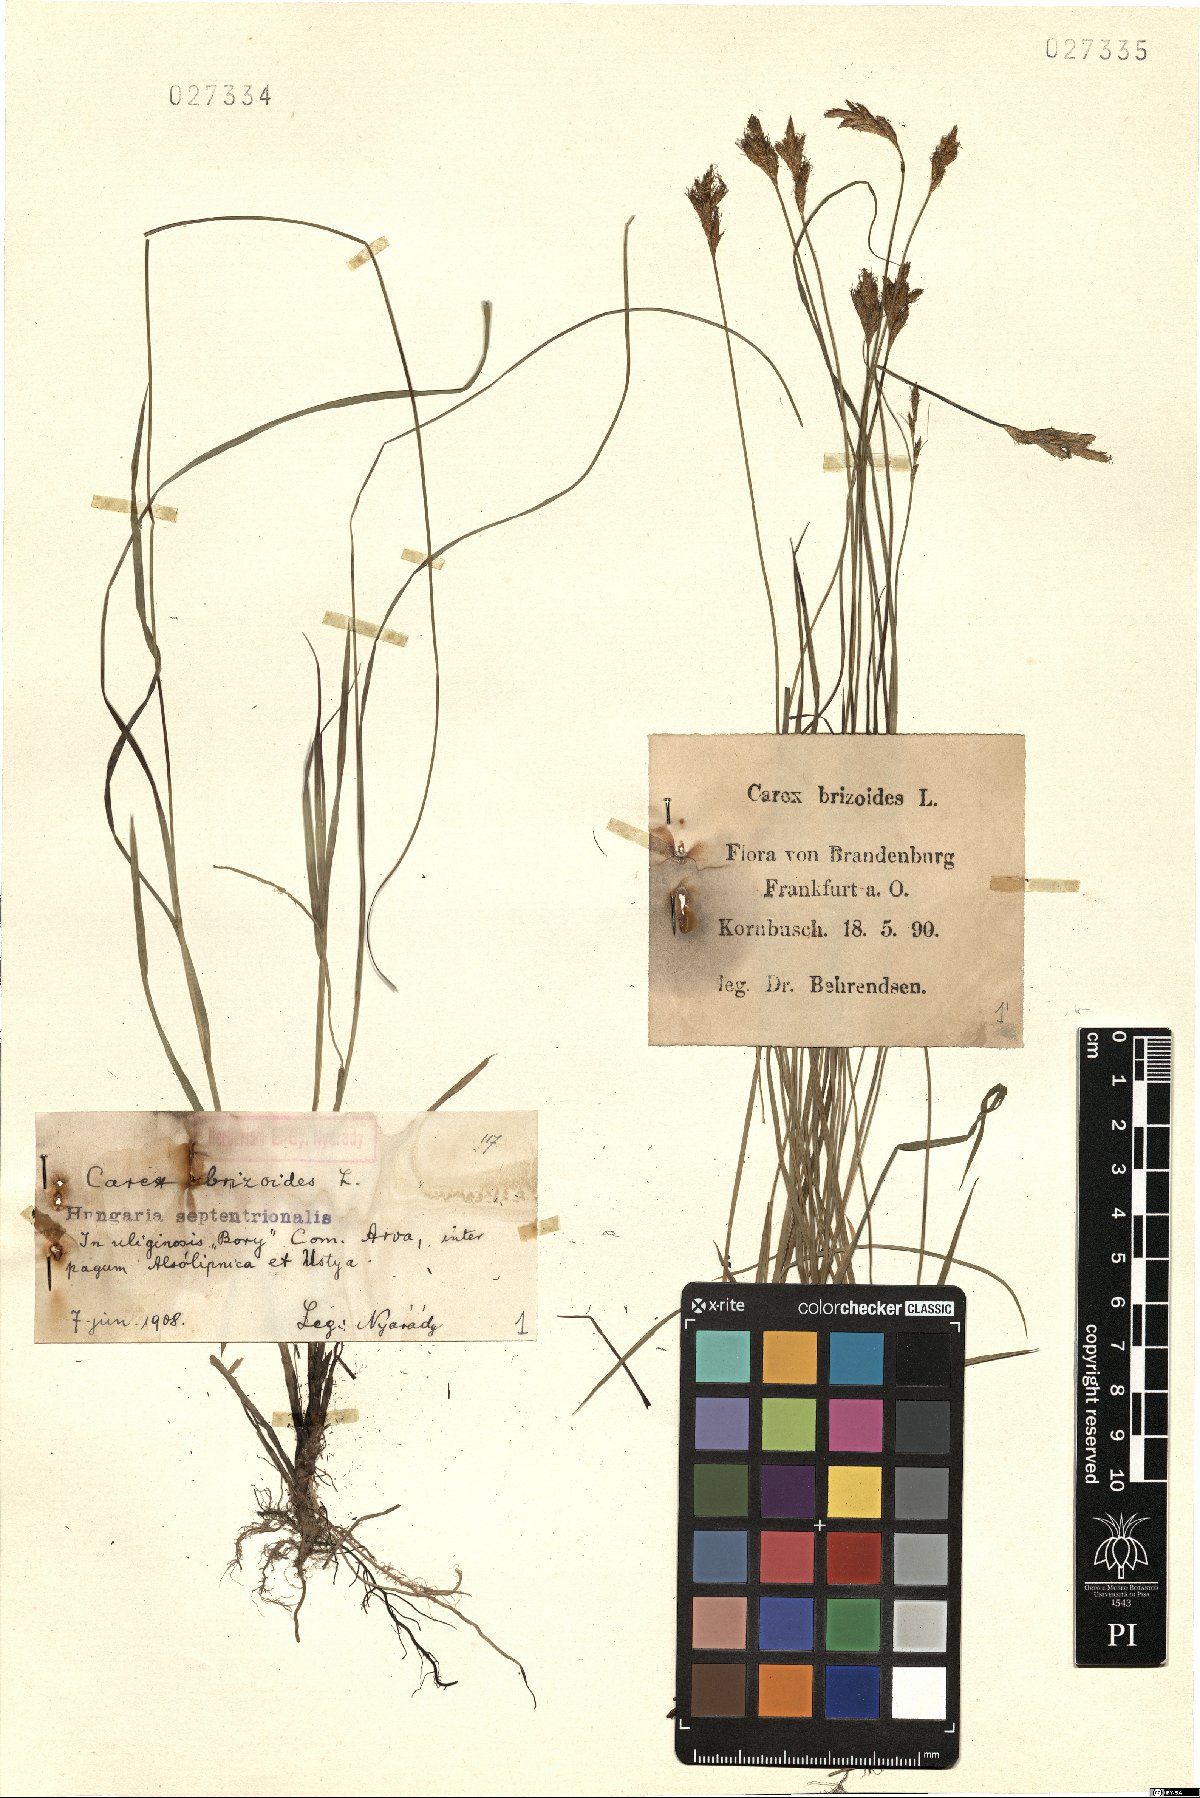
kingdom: Plantae
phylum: Tracheophyta
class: Liliopsida
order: Poales
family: Cyperaceae
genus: Carex
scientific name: Carex brizoides
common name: Quaking-grass sedge
